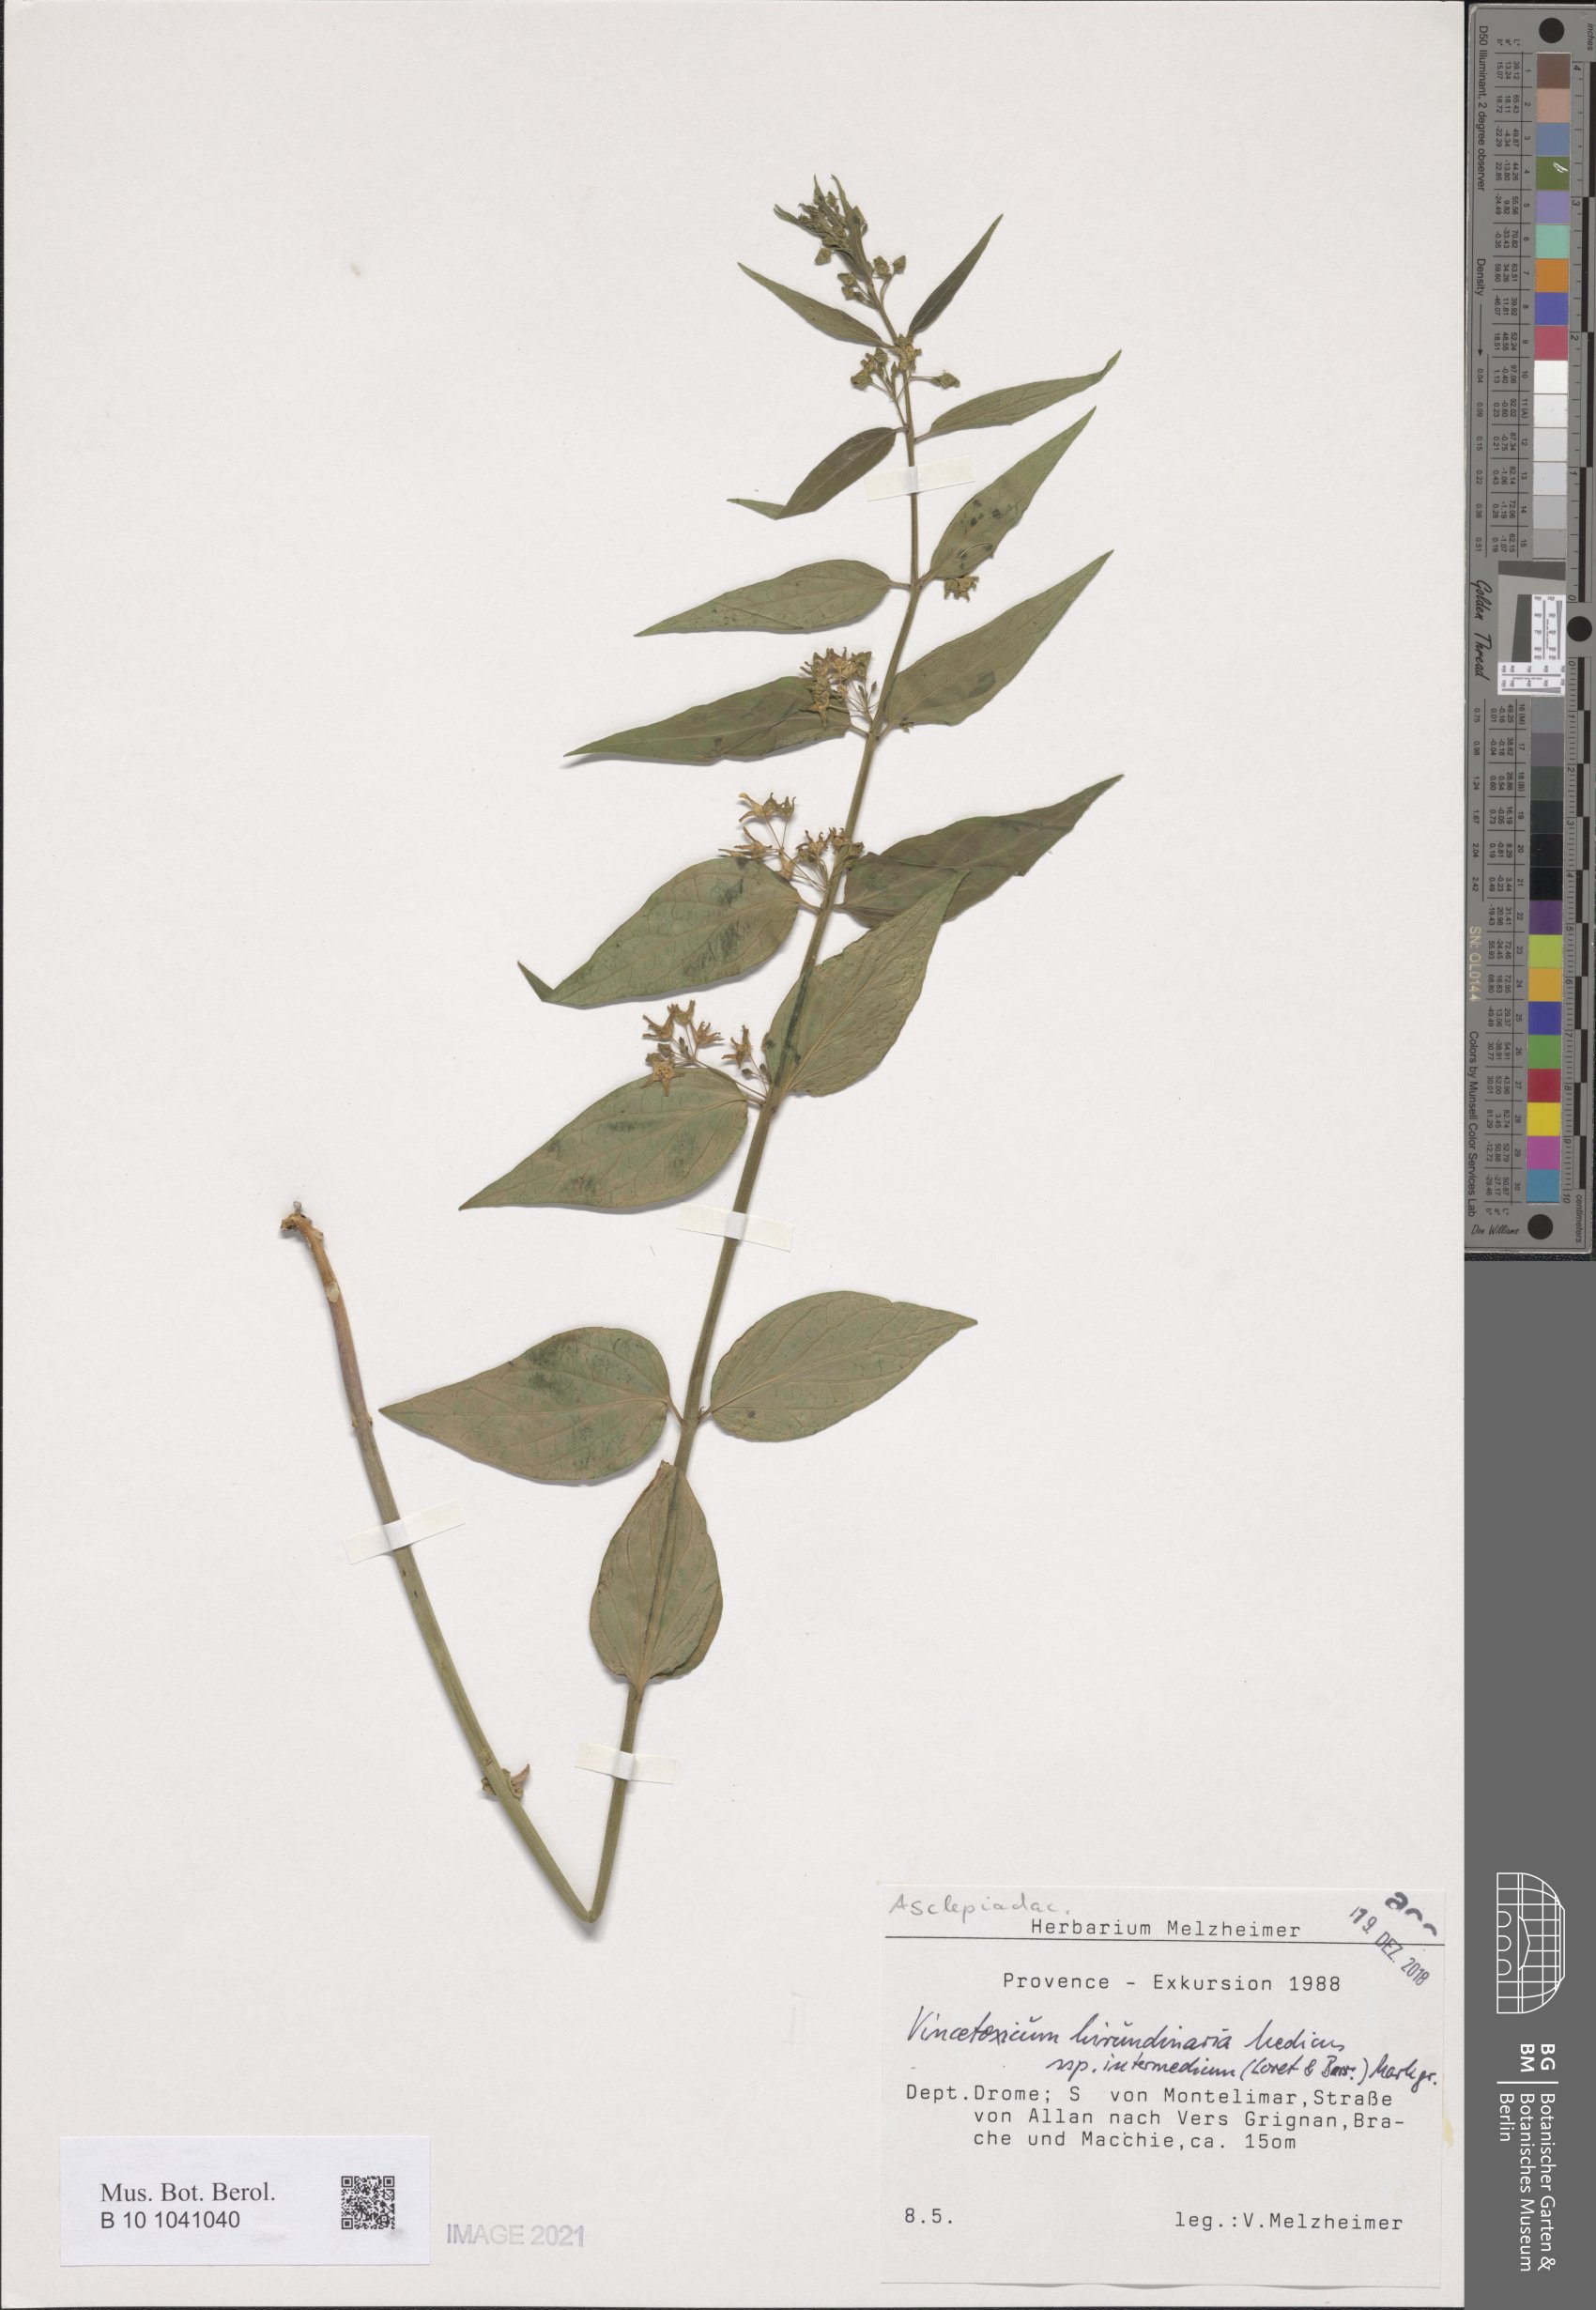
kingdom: Plantae
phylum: Tracheophyta
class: Magnoliopsida
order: Gentianales
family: Apocynaceae
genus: Vincetoxicum
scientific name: Vincetoxicum hirundinaria
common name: White swallowwort
